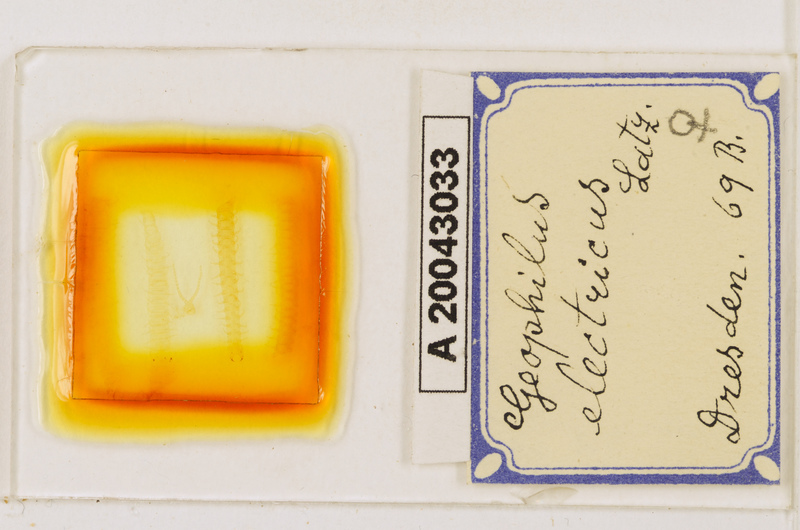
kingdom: Animalia
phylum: Arthropoda
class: Chilopoda
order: Geophilomorpha
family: Geophilidae
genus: Geophilus
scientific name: Geophilus electricus
